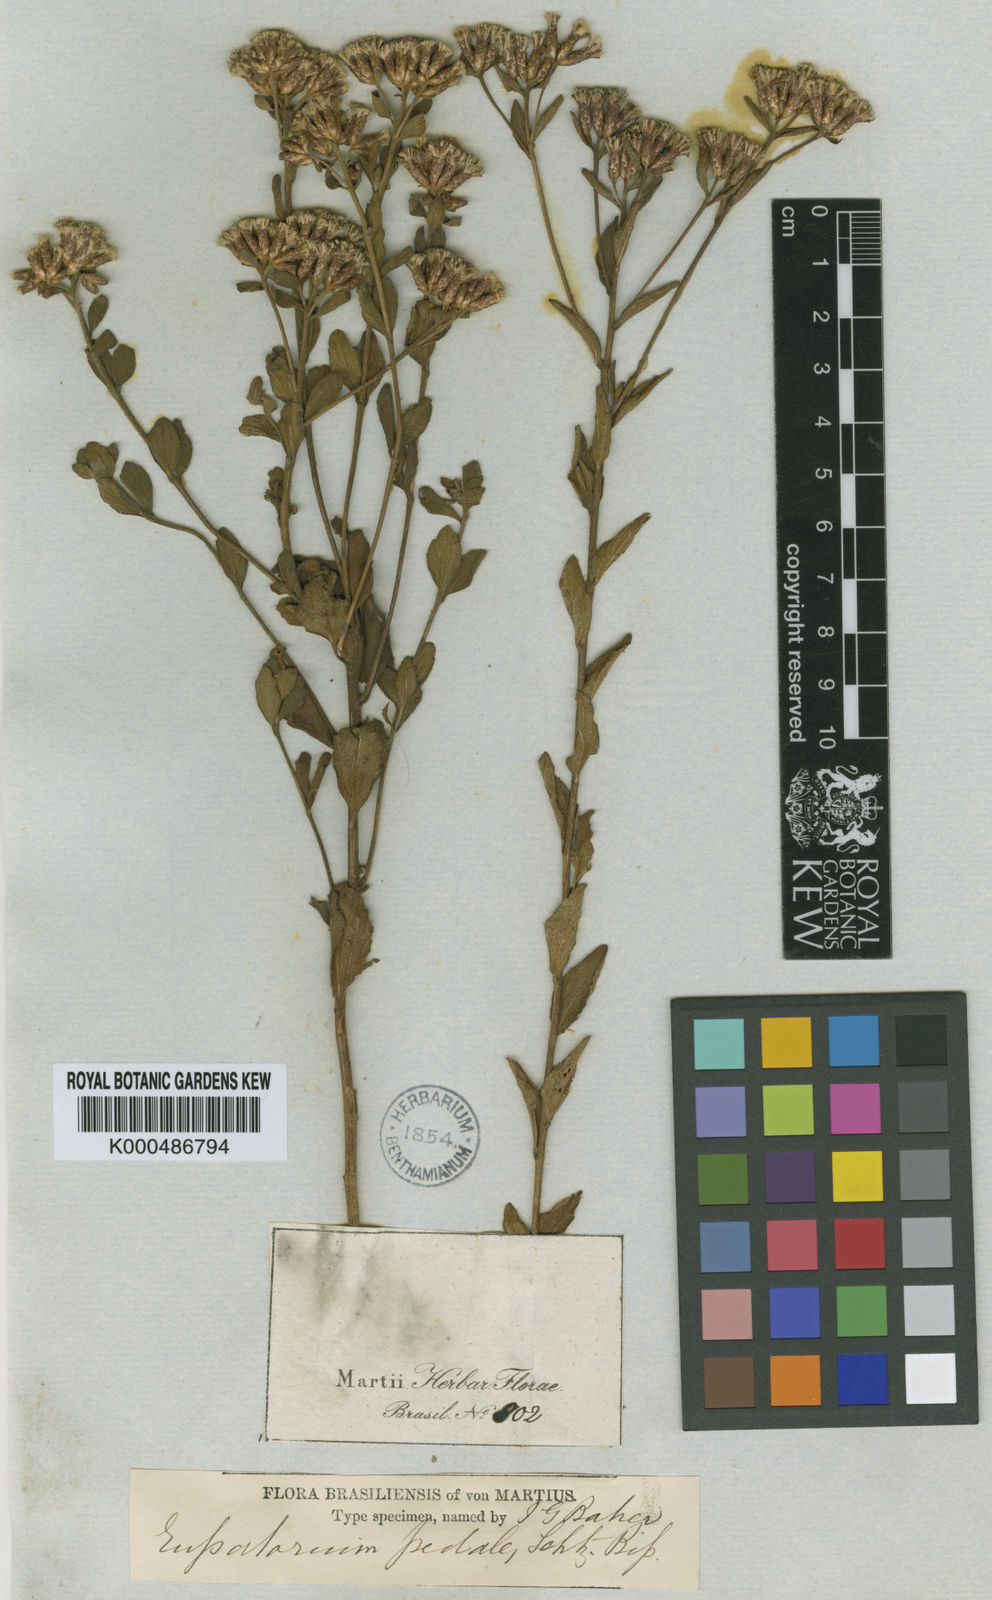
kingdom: Plantae
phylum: Tracheophyta
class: Magnoliopsida
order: Asterales
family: Asteraceae
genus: Chromolaena
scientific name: Chromolaena pedalis
